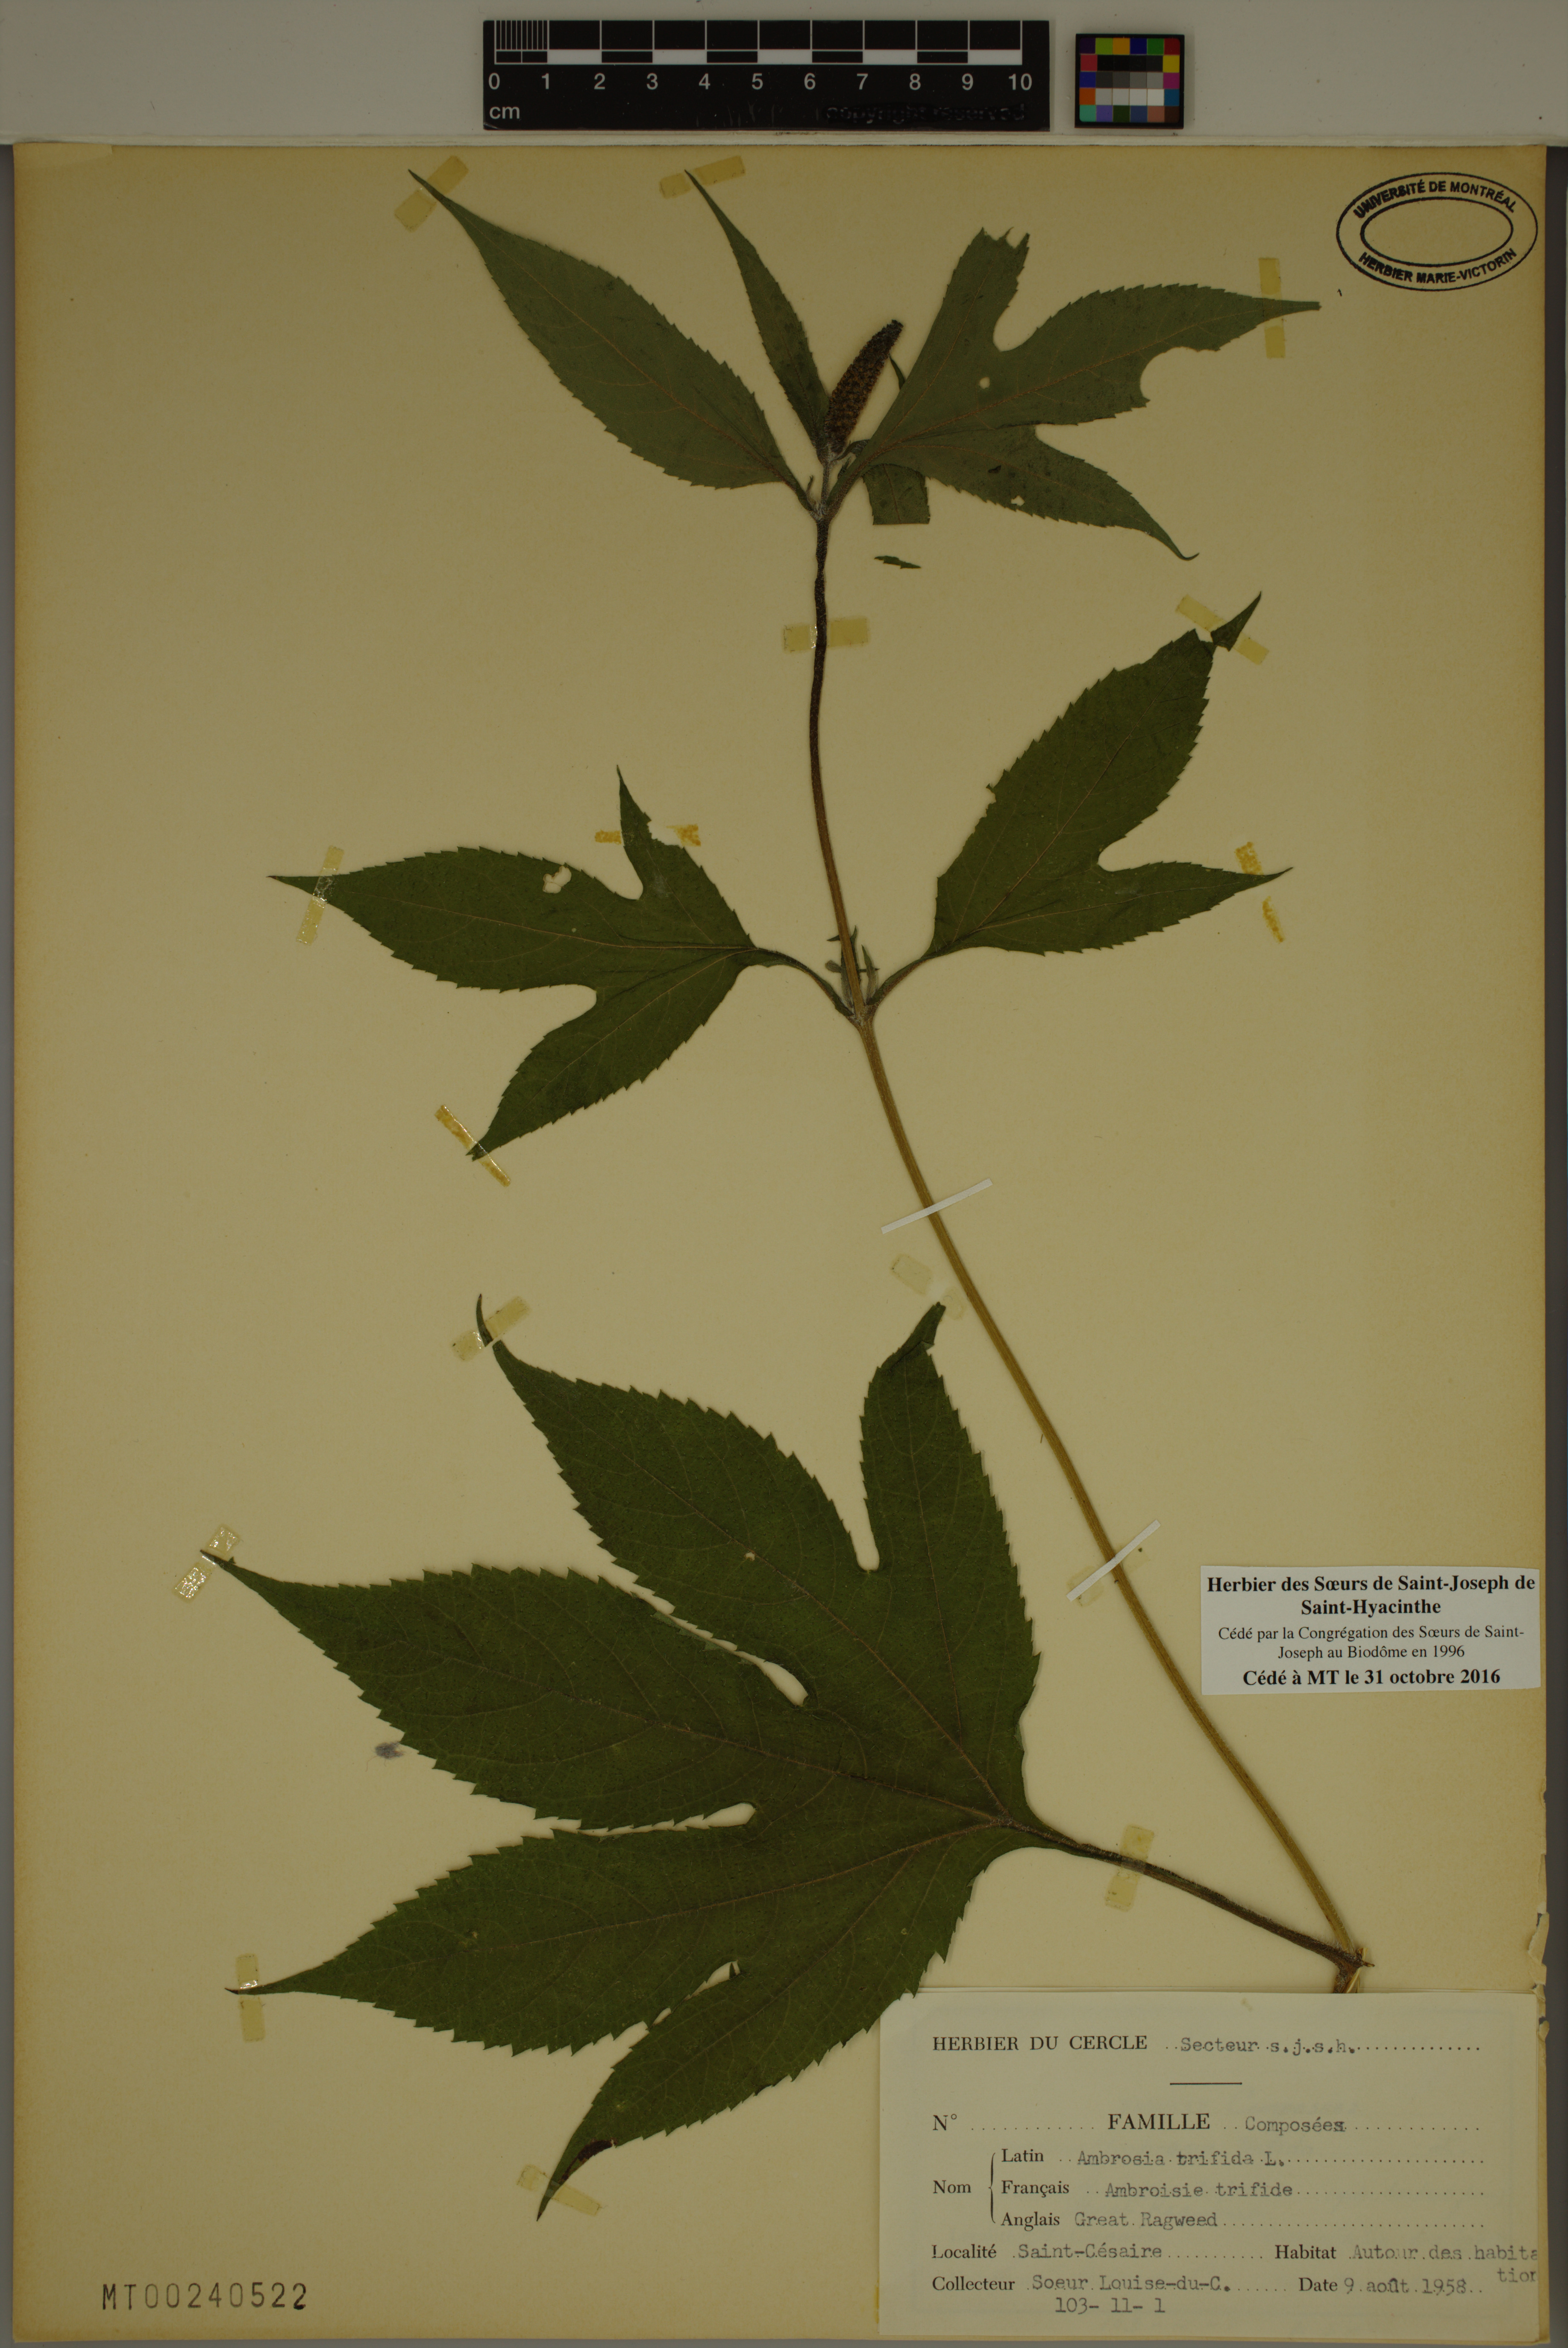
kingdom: Plantae
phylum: Tracheophyta
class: Magnoliopsida
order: Asterales
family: Asteraceae
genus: Ambrosia
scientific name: Ambrosia trifida
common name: Giant ragweed
